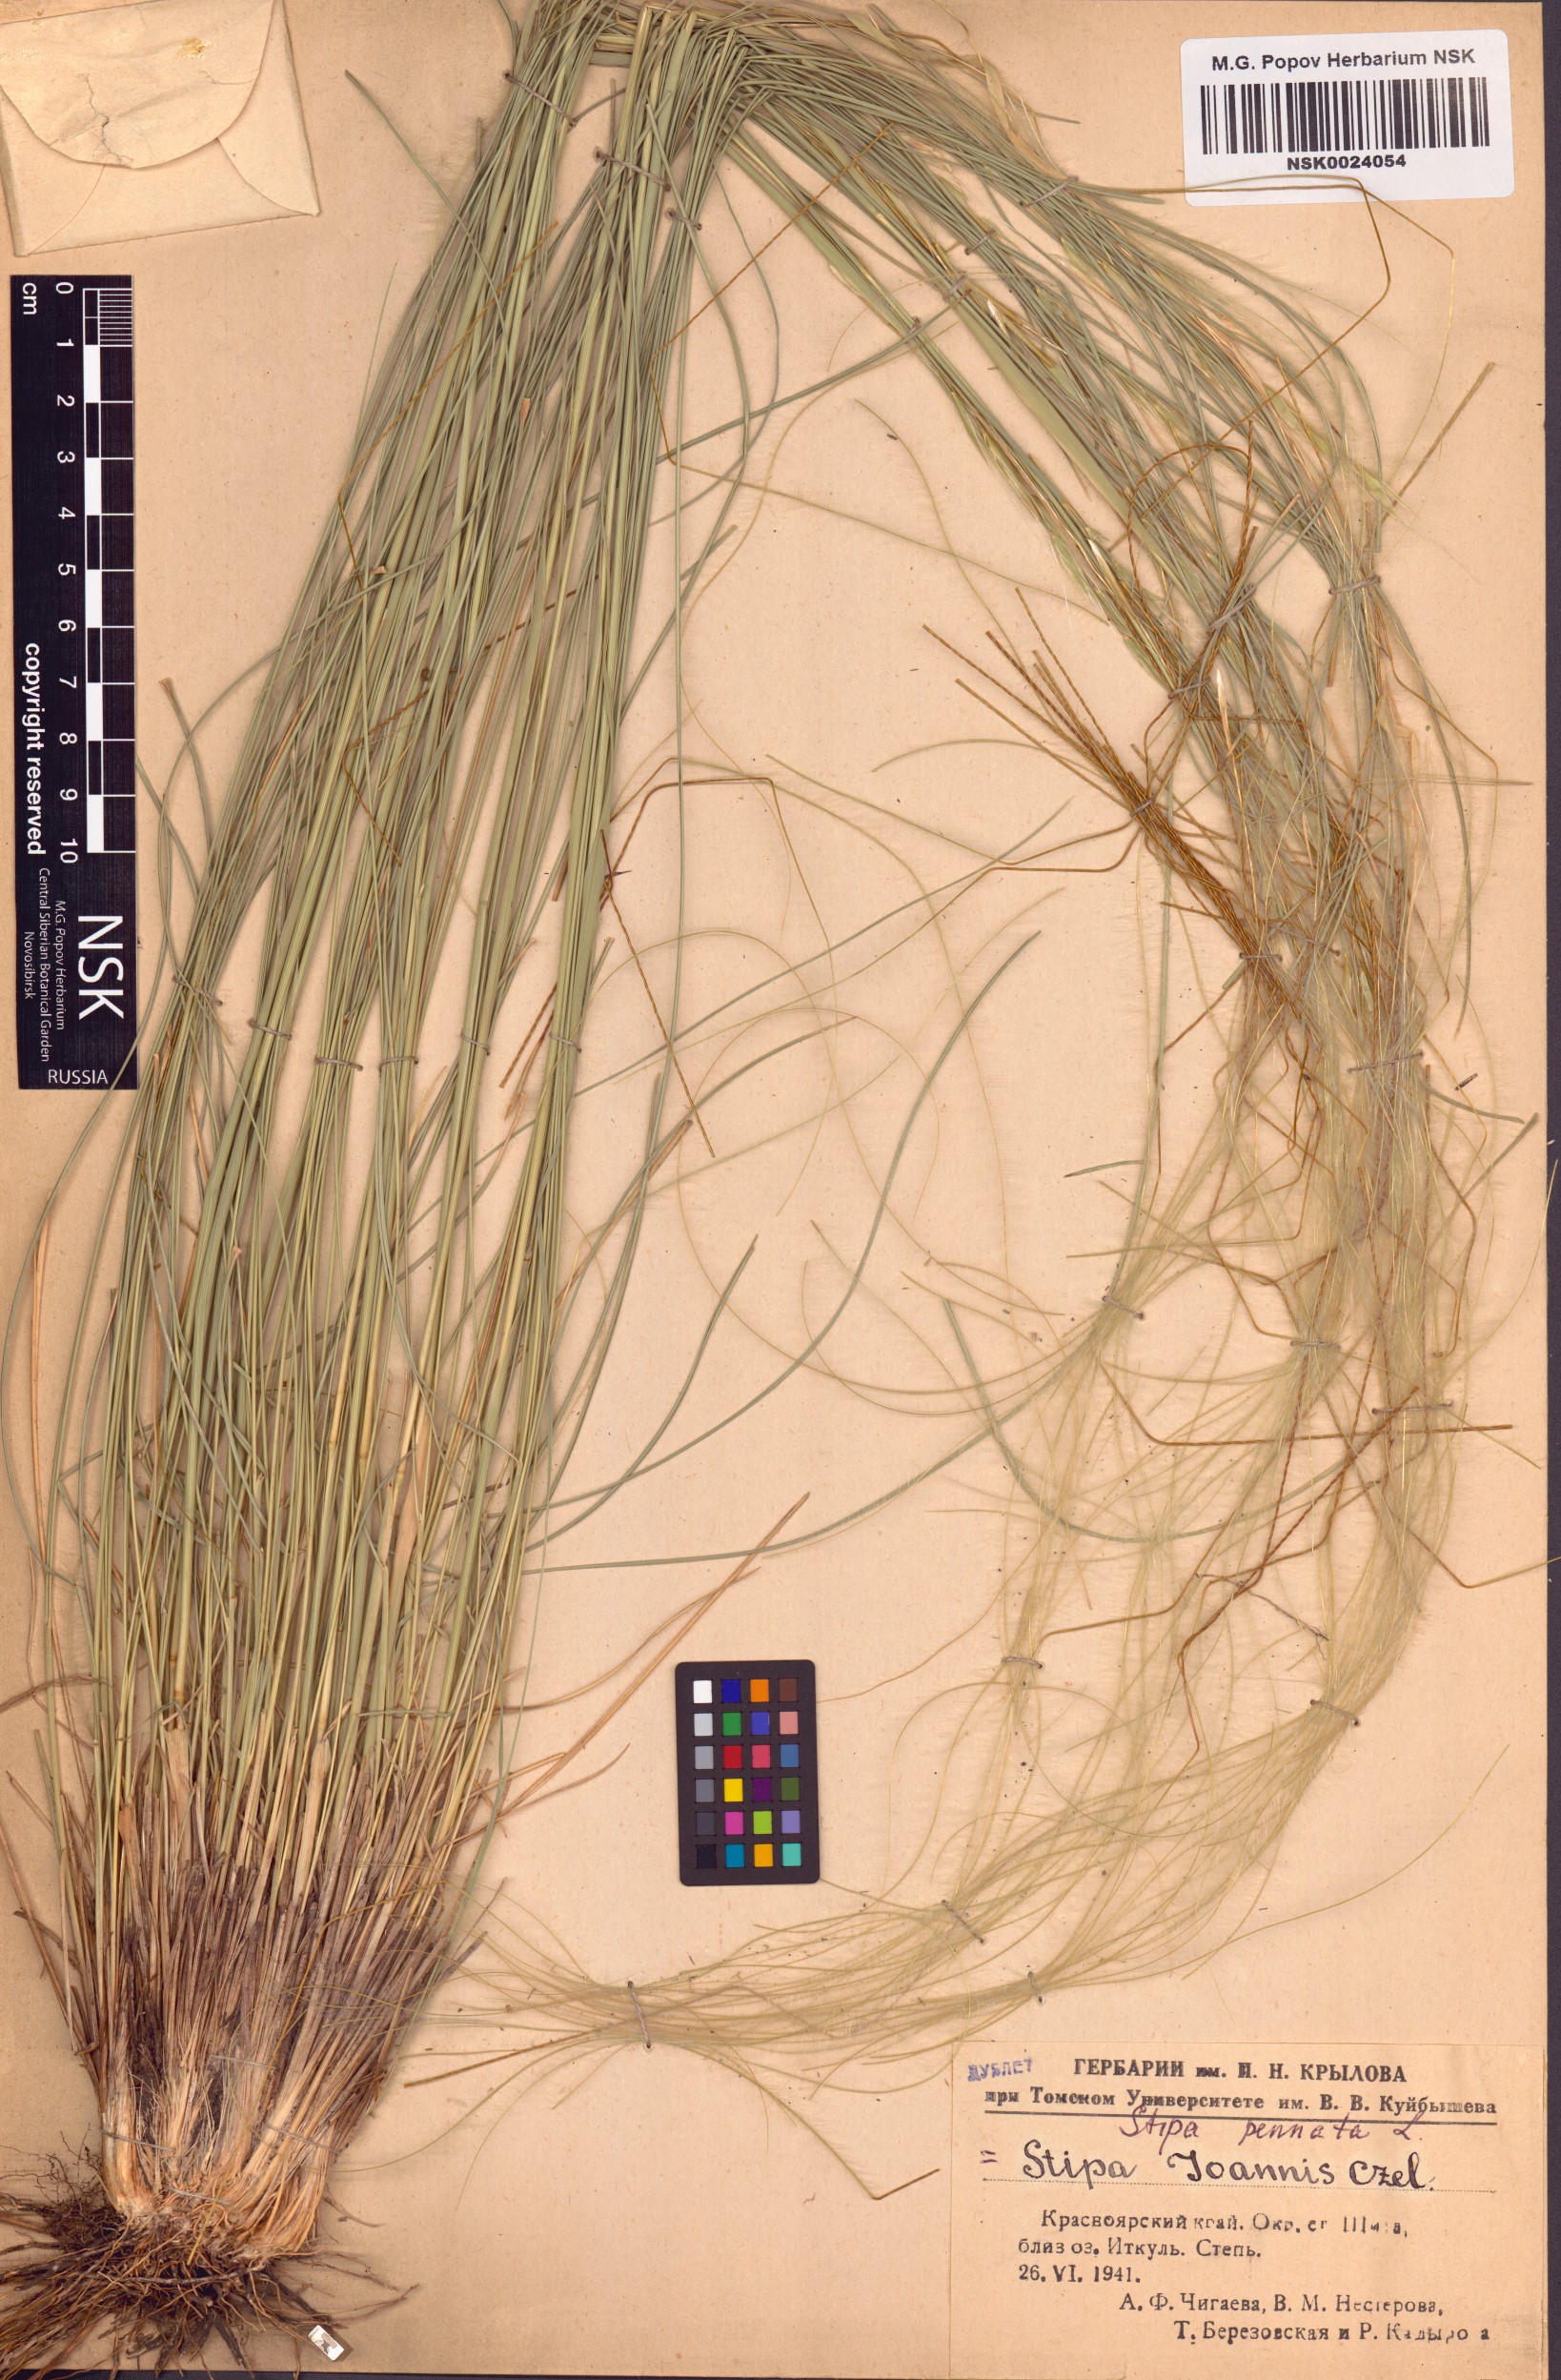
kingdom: Plantae
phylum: Tracheophyta
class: Liliopsida
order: Poales
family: Poaceae
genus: Stipa
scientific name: Stipa pennata
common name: European feather grass
